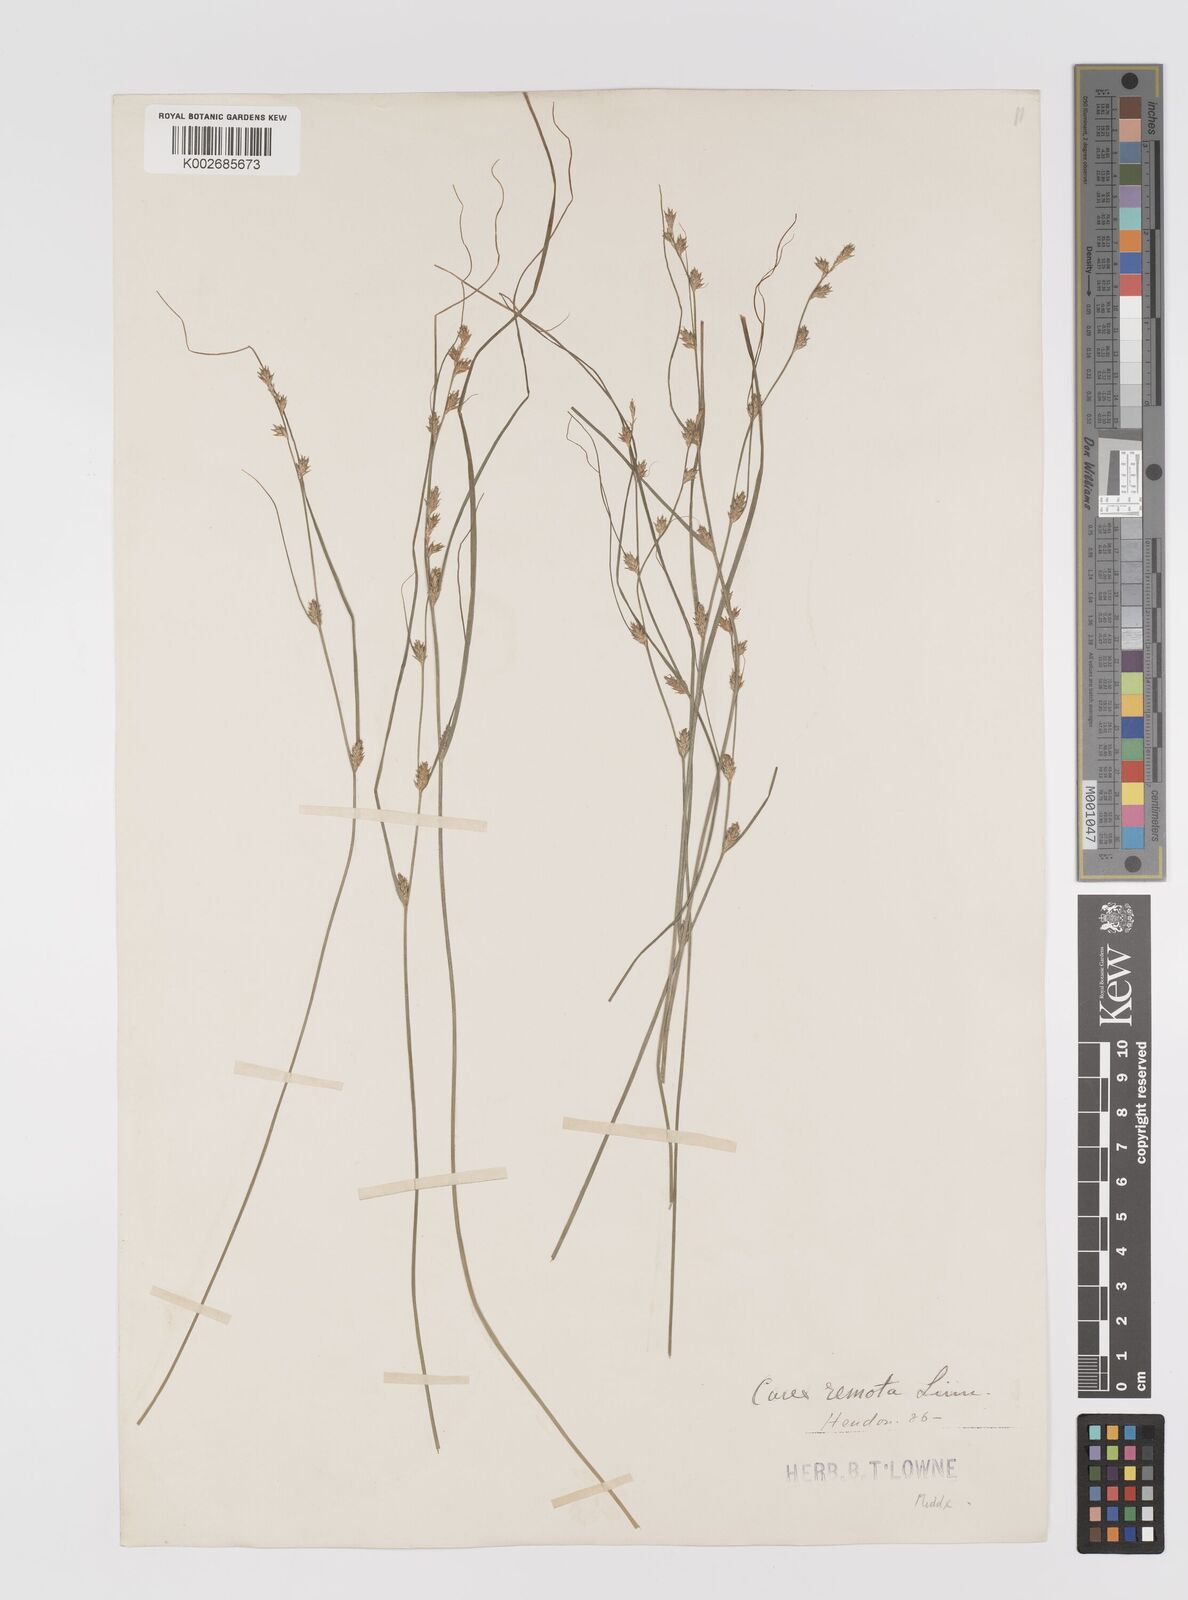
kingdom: Plantae
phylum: Tracheophyta
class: Liliopsida
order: Poales
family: Cyperaceae
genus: Carex
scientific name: Carex remota
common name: Remote sedge
